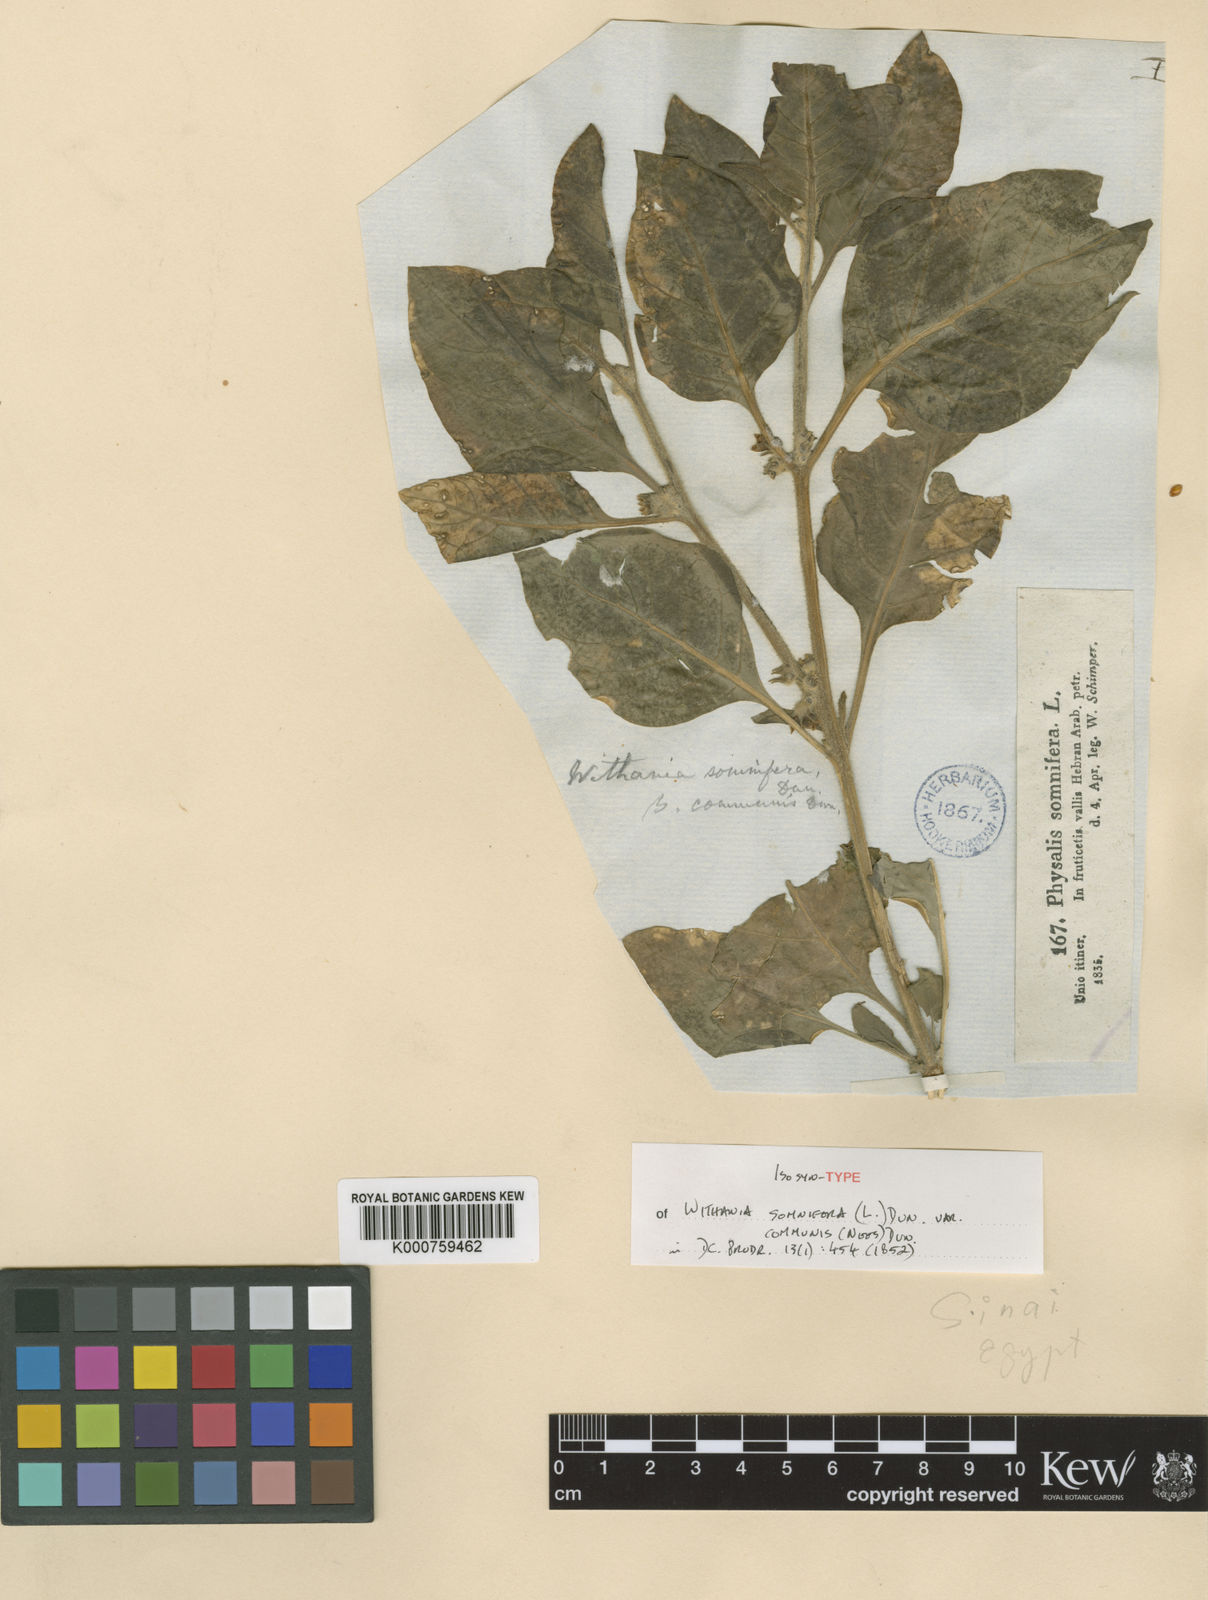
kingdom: Plantae
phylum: Tracheophyta
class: Magnoliopsida
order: Solanales
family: Solanaceae
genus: Withania
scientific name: Withania somnifera
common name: Winter-cherry
